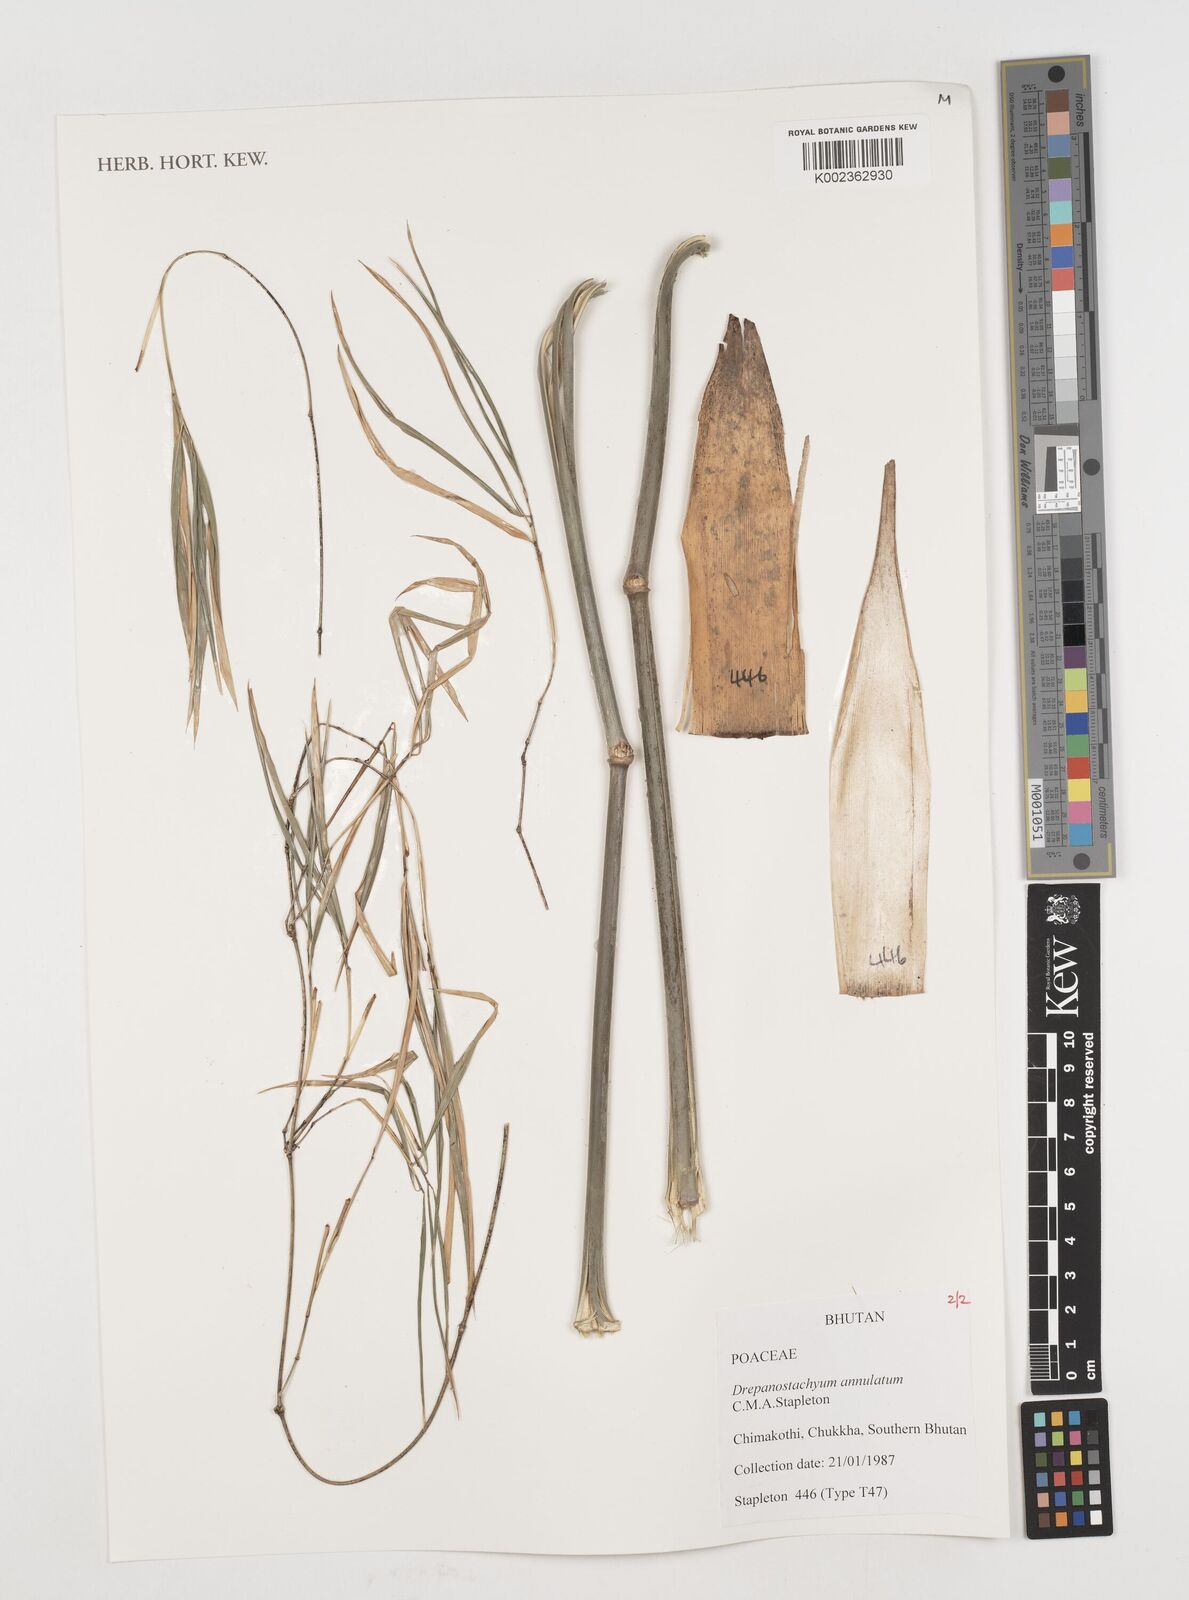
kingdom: Plantae
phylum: Tracheophyta
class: Liliopsida
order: Poales
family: Poaceae
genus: Drepanostachyum
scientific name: Drepanostachyum annulatum
